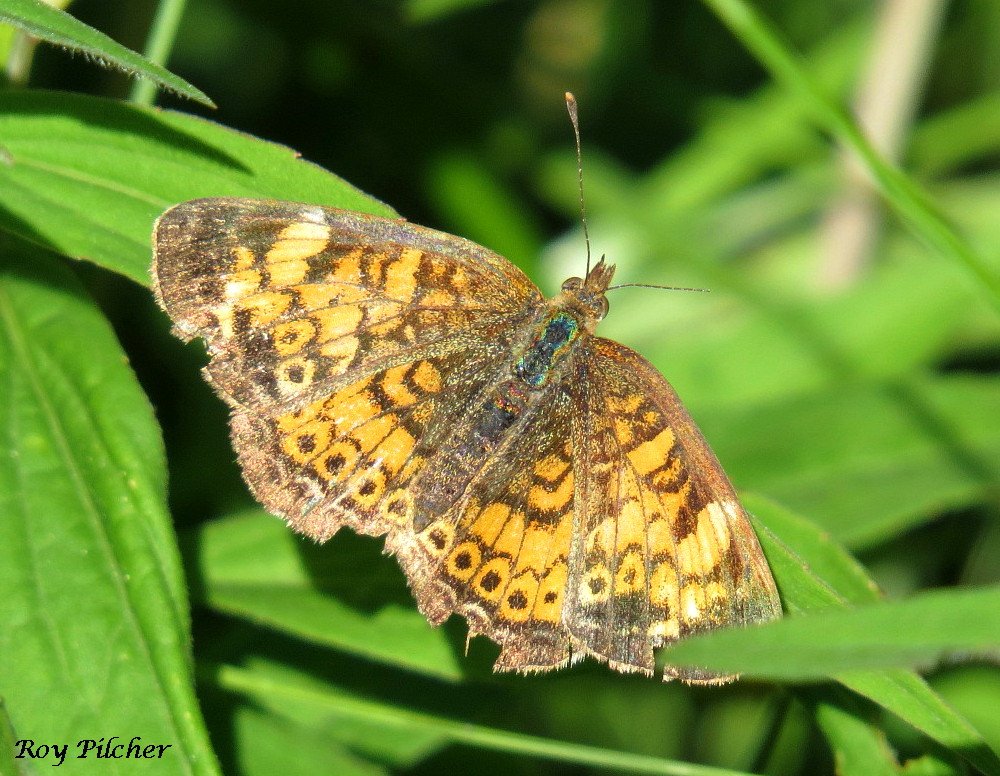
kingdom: Animalia
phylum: Arthropoda
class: Insecta
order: Lepidoptera
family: Nymphalidae
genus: Phyciodes
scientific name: Phyciodes tharos
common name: Pearl Crescent
